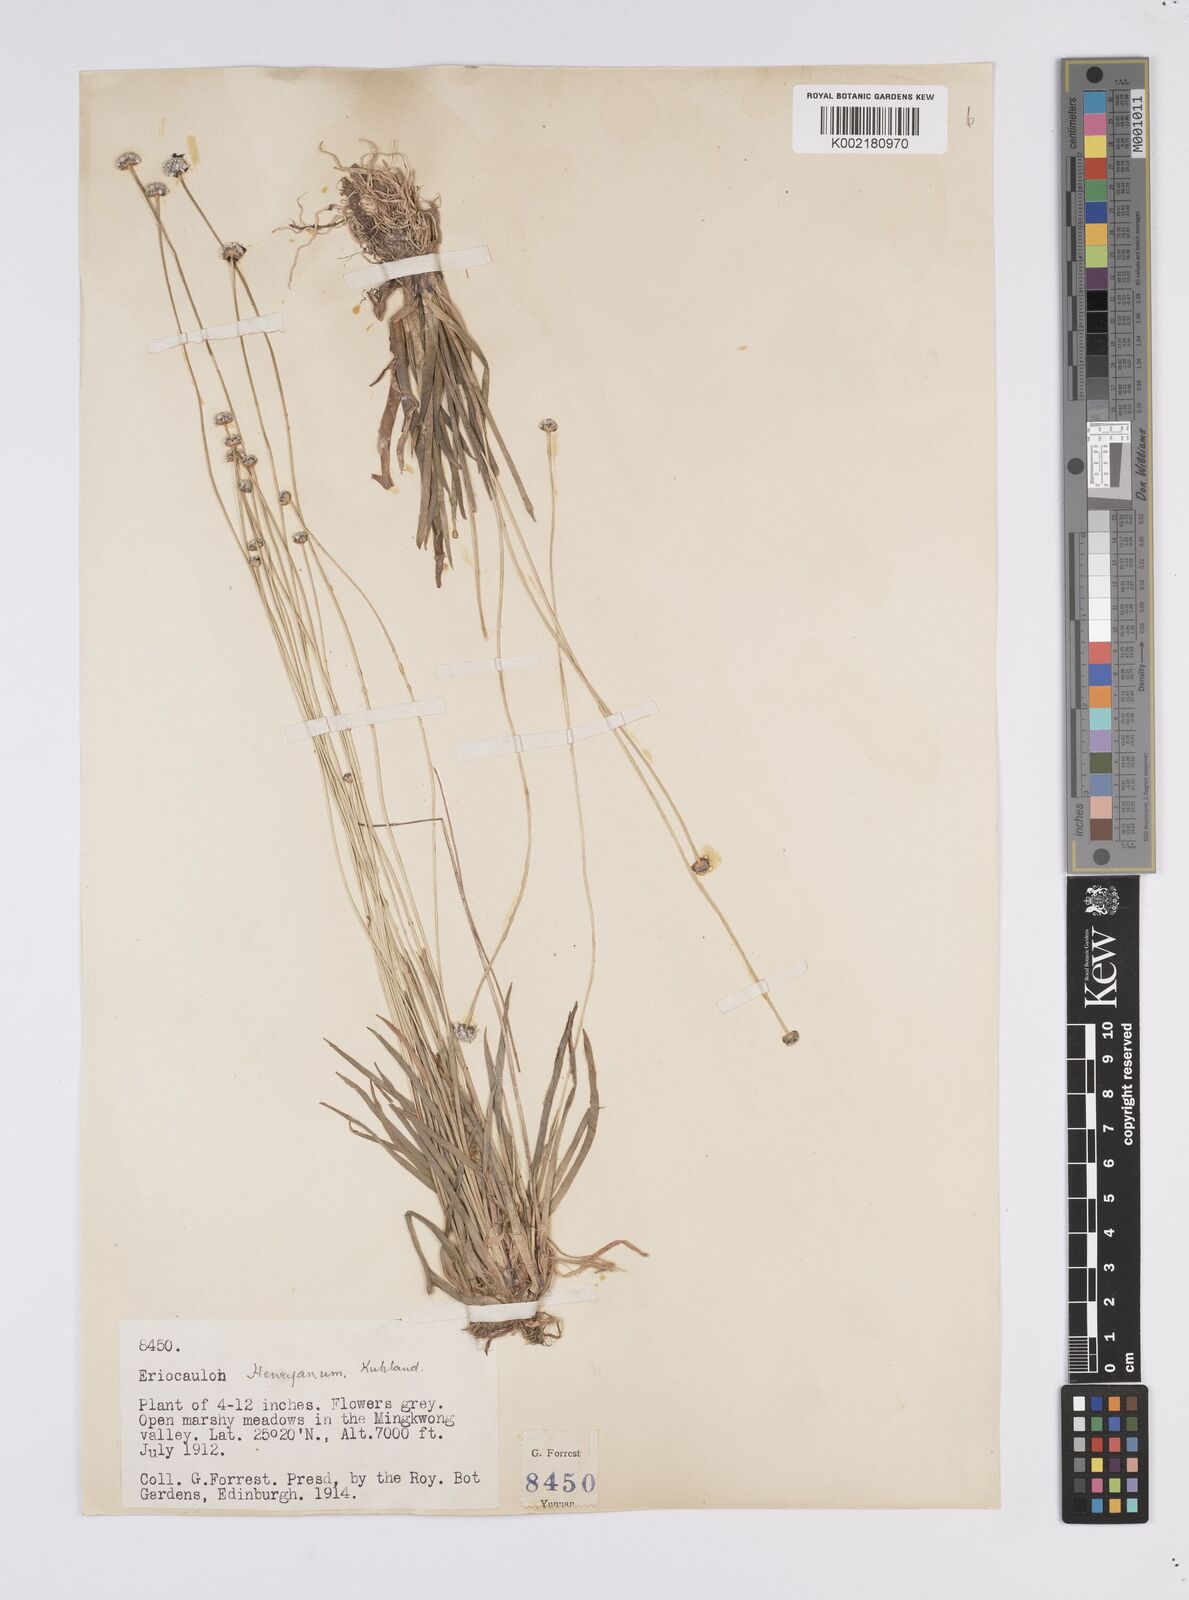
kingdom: Plantae
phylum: Tracheophyta
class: Liliopsida
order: Poales
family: Eriocaulaceae
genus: Eriocaulon
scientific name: Eriocaulon henryanum
